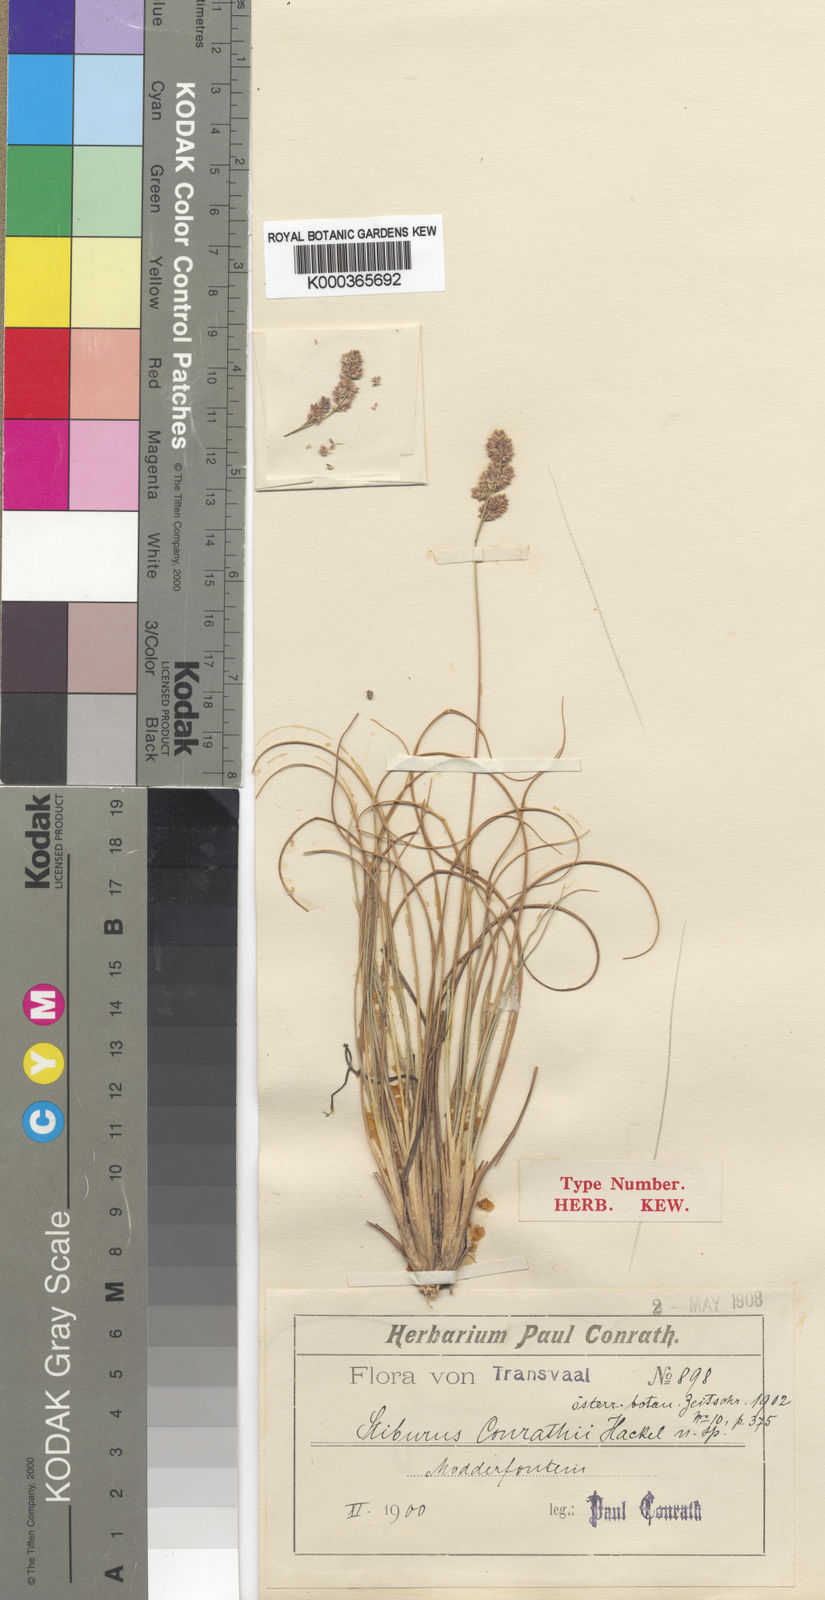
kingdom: Plantae
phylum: Tracheophyta
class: Liliopsida
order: Poales
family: Poaceae
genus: Stiburus
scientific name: Stiburus conrathii
